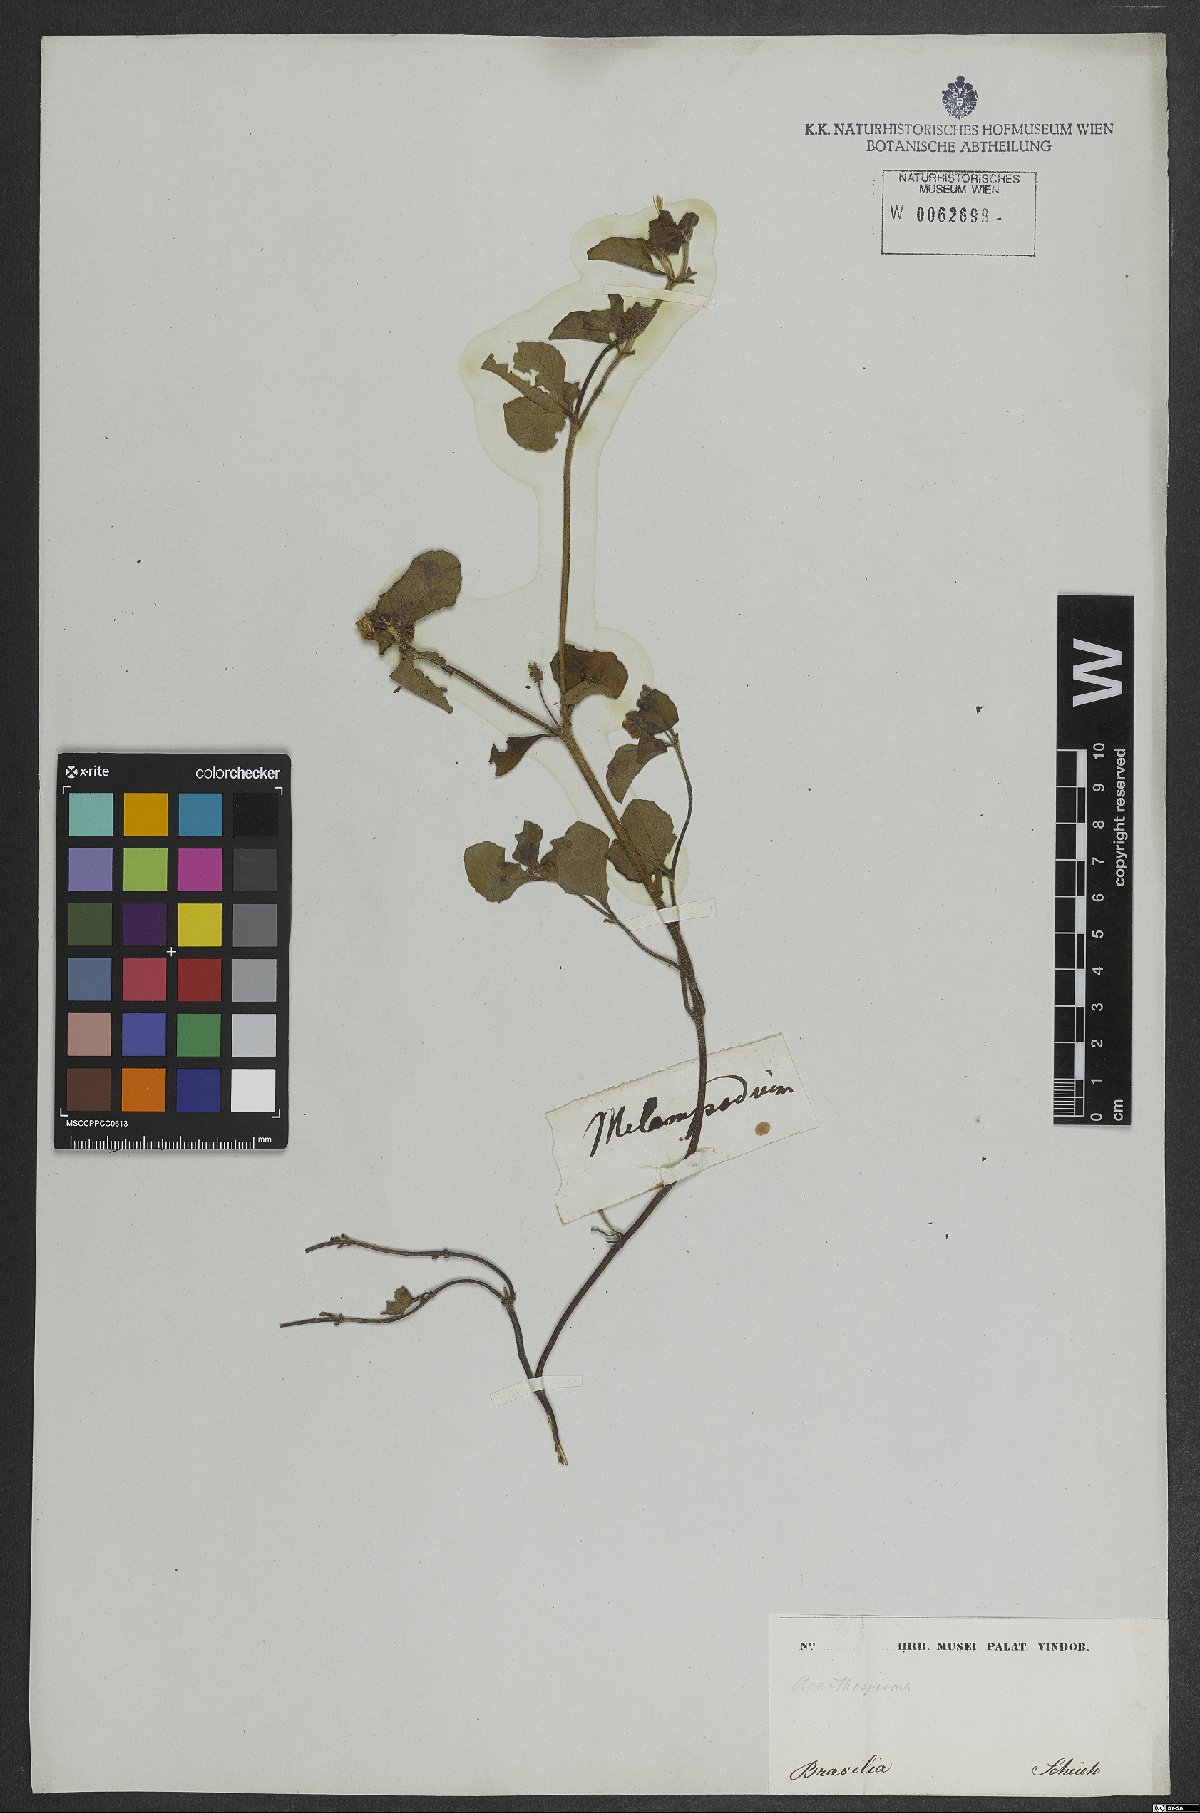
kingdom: Plantae
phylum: Tracheophyta
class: Magnoliopsida
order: Asterales
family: Asteraceae
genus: Acanthospermum
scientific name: Acanthospermum hispidum
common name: Hispid starbur
